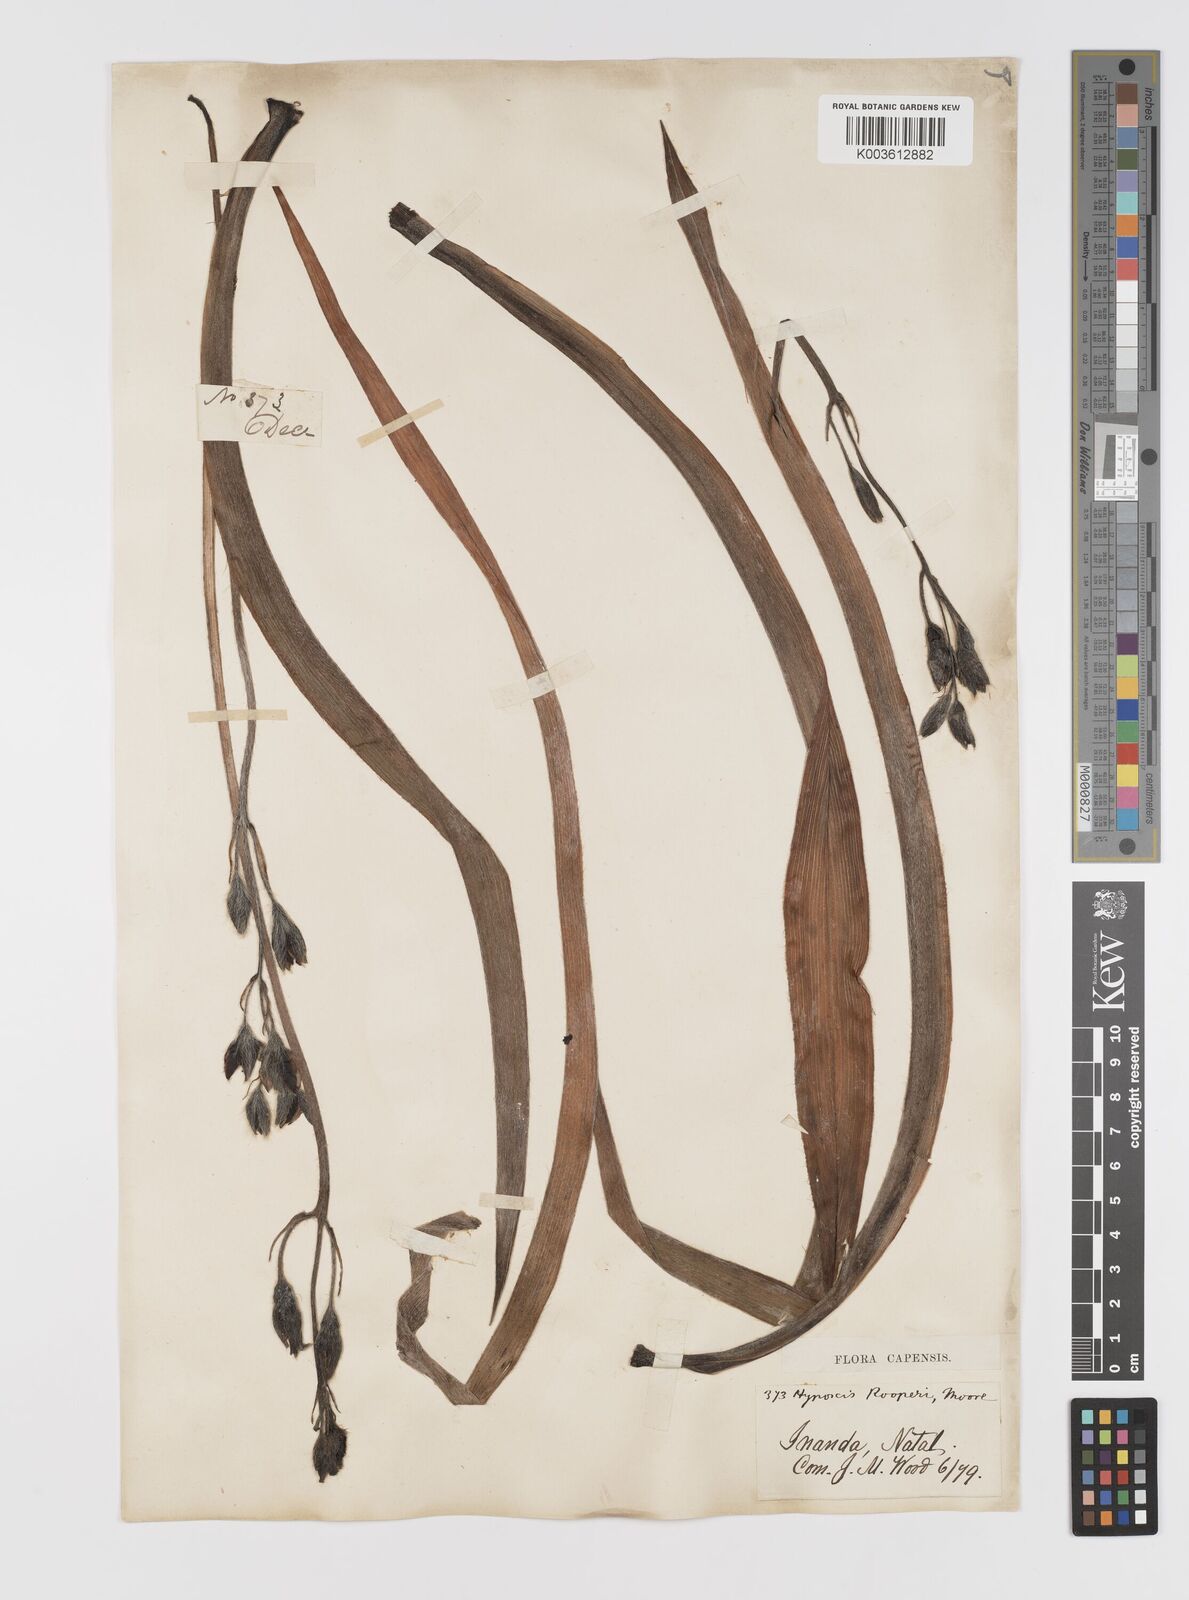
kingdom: Plantae
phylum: Tracheophyta
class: Liliopsida
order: Asparagales
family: Hypoxidaceae
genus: Hypoxis
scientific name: Hypoxis hemerocallidea
